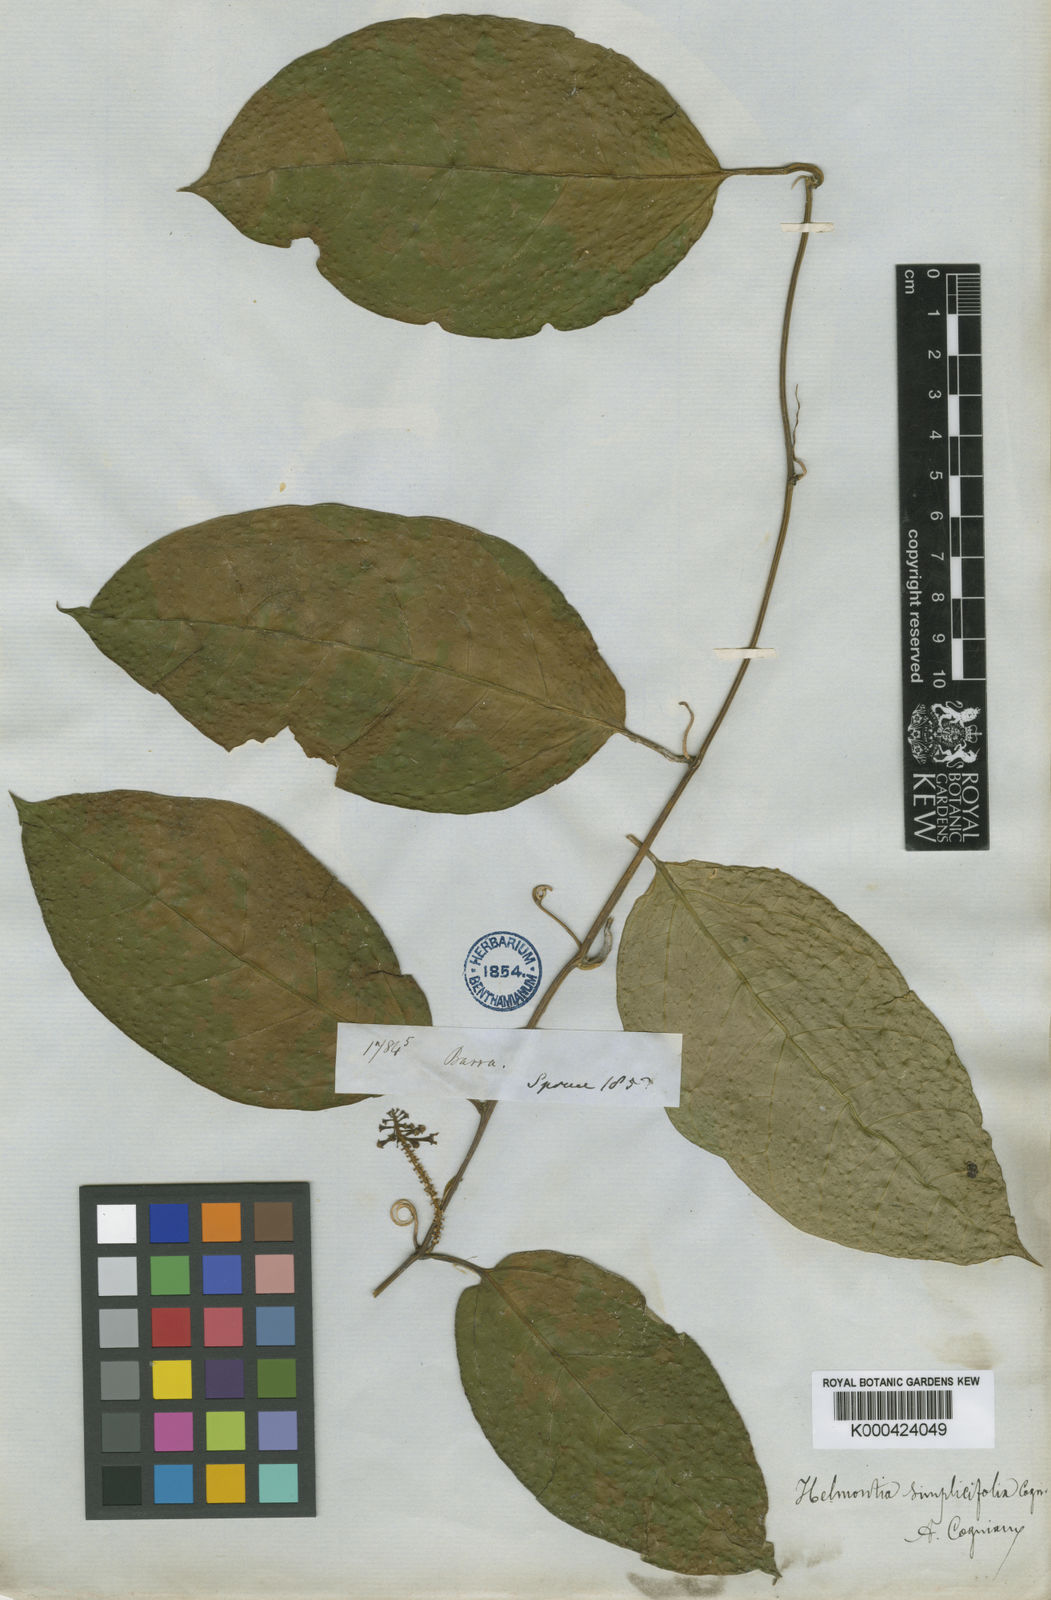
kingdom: Plantae
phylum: Tracheophyta
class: Magnoliopsida
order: Cucurbitales
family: Cucurbitaceae
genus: Helmontia
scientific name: Helmontia leptantha
